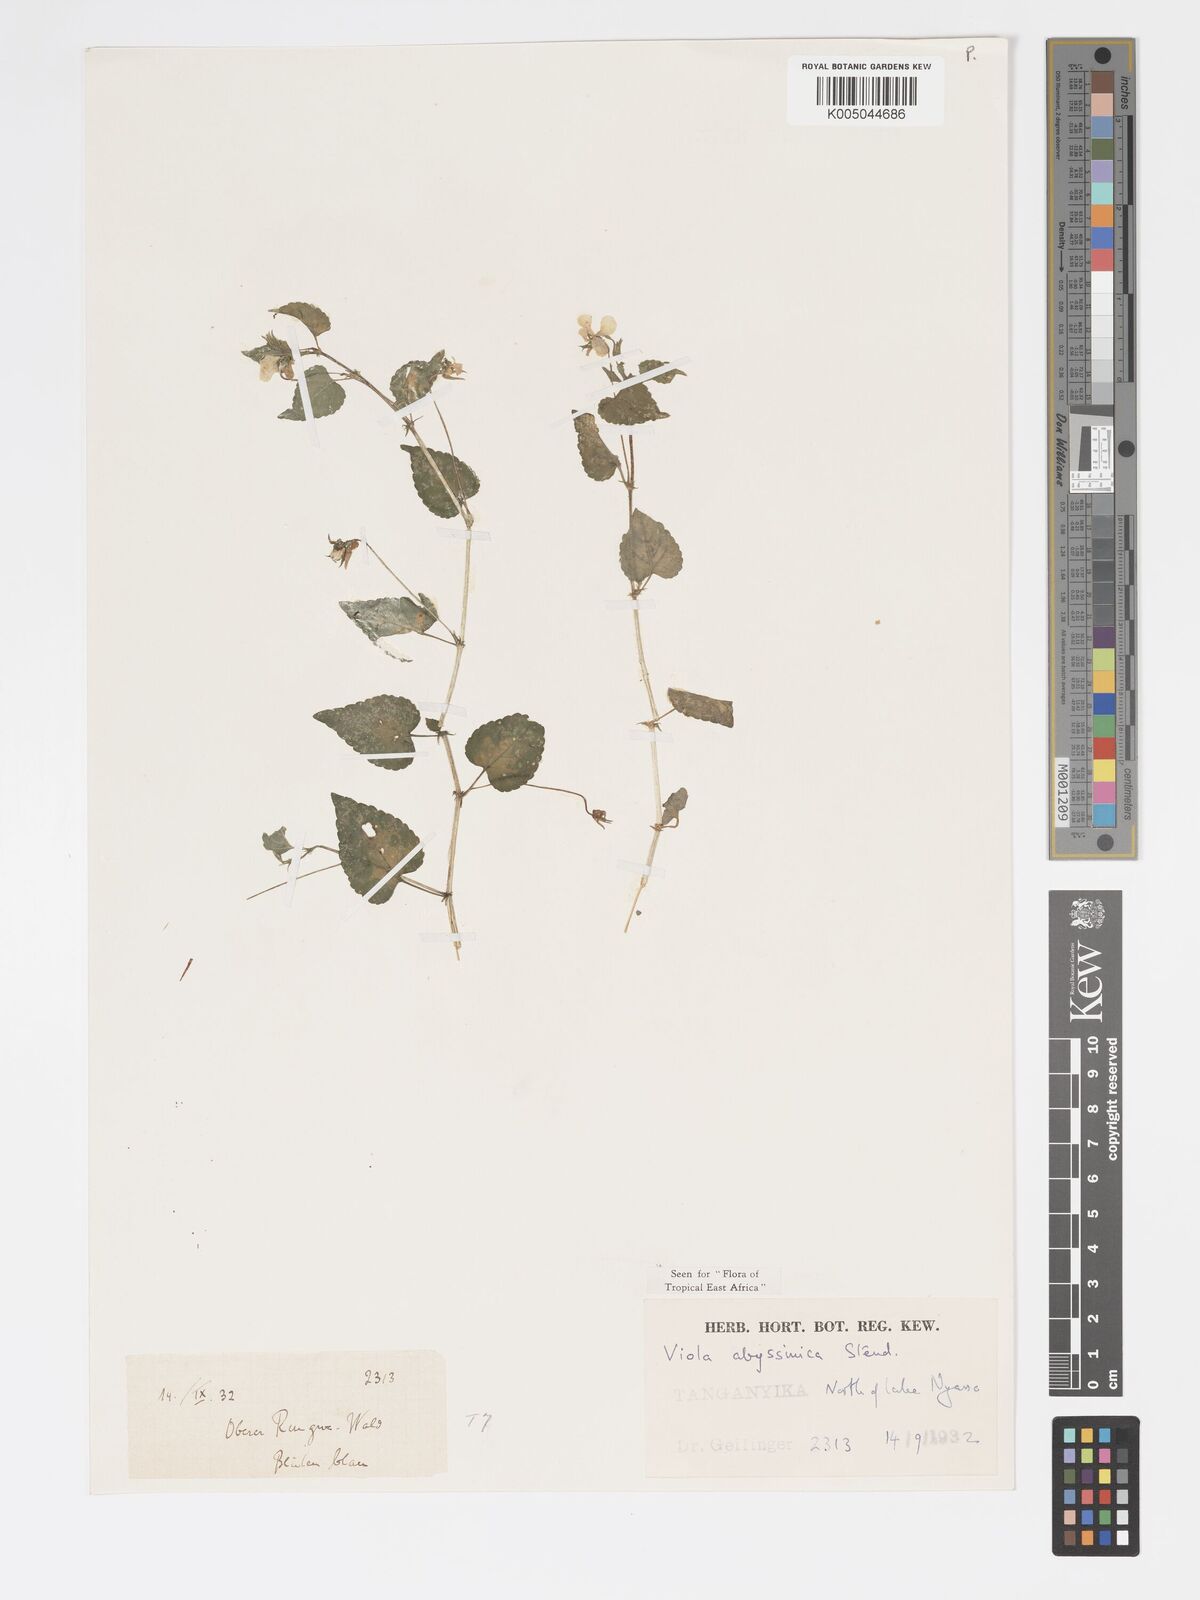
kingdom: Plantae
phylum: Tracheophyta
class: Magnoliopsida
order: Malpighiales
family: Violaceae
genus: Viola
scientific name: Viola abyssinica
